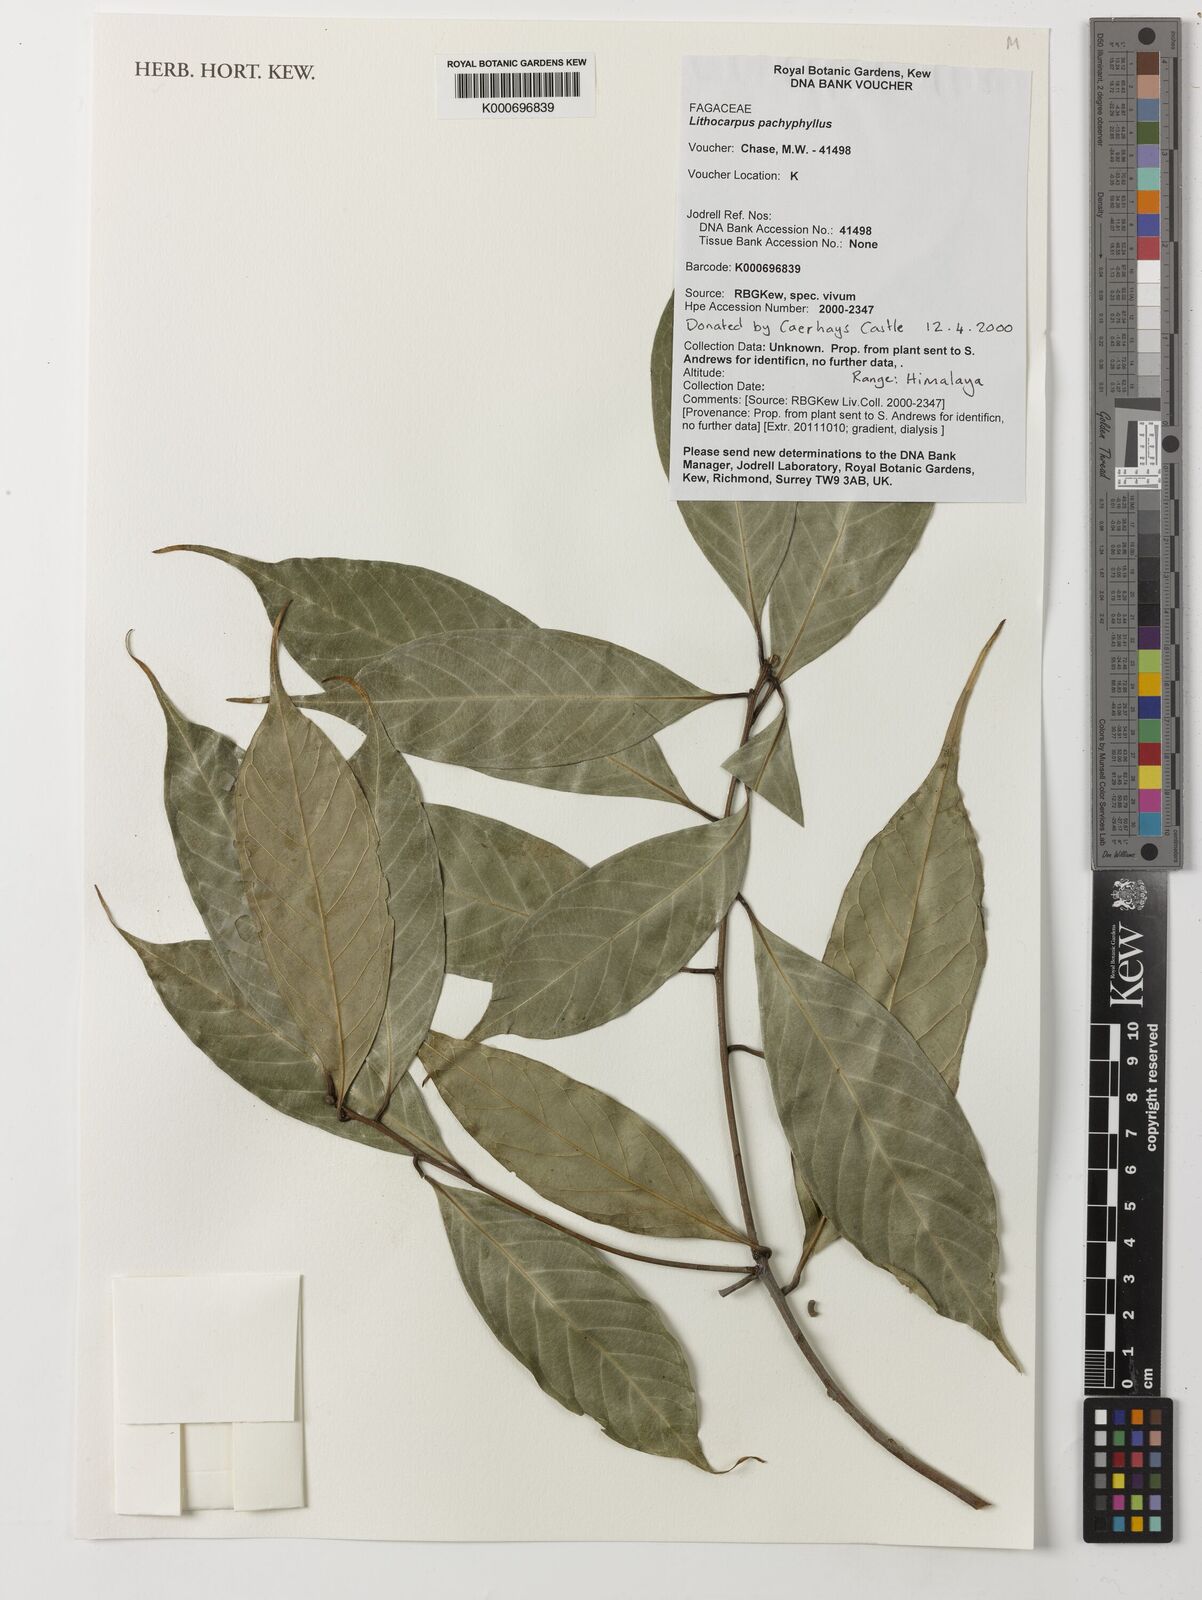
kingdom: Plantae
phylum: Tracheophyta
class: Magnoliopsida
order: Fagales
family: Fagaceae
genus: Lithocarpus
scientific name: Lithocarpus pachyphyllus
